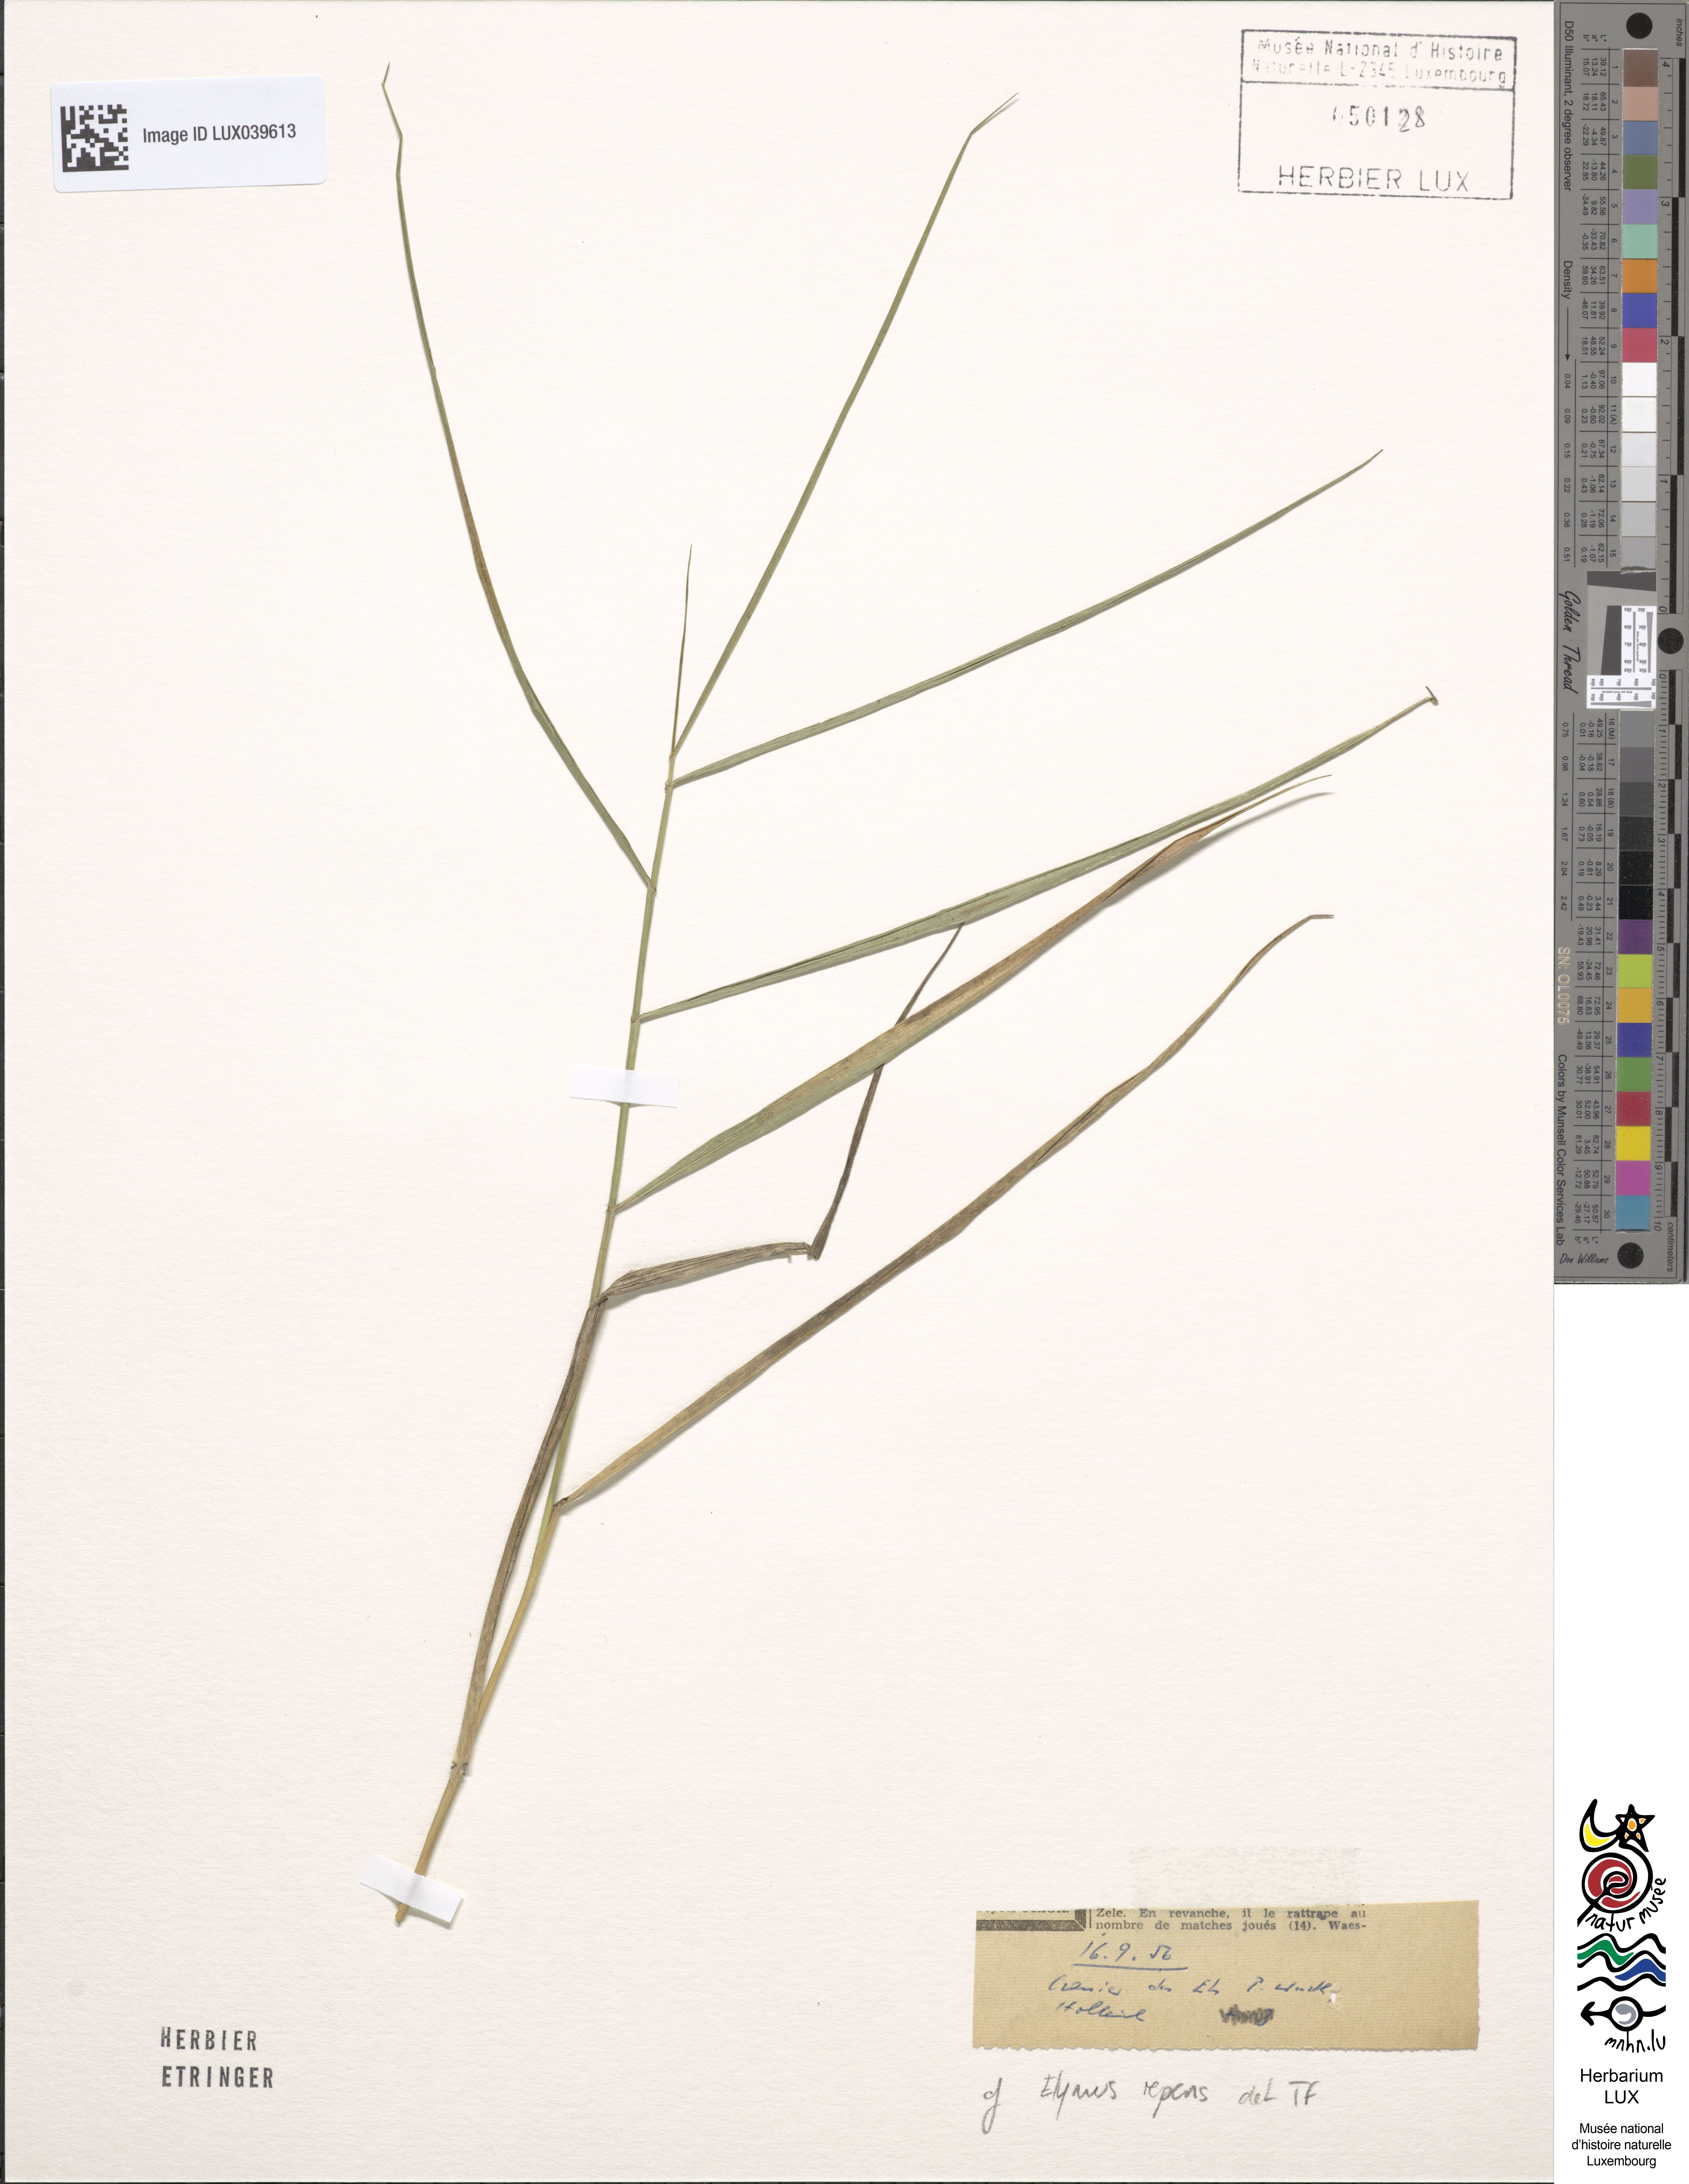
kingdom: Plantae
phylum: Tracheophyta
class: Liliopsida
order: Poales
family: Poaceae
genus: Elymus
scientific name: Elymus repens
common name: Quackgrass
